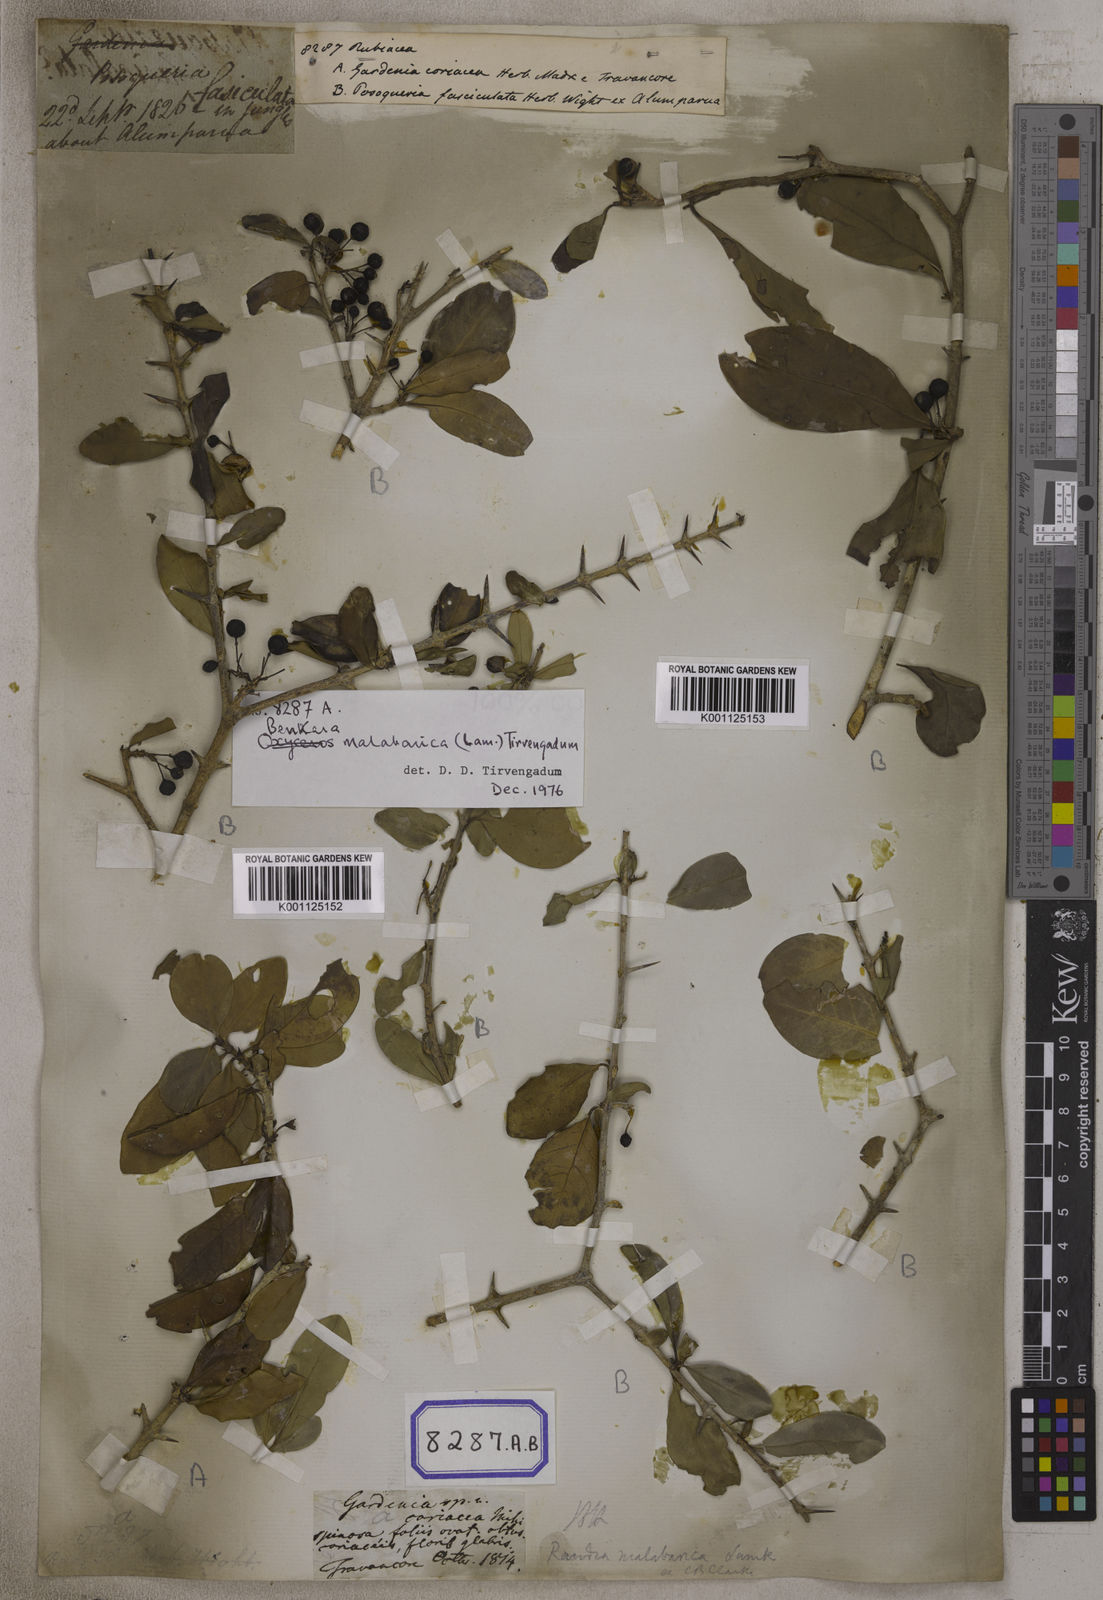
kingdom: Plantae
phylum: Tracheophyta
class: Magnoliopsida
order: Gentianales
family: Rubiaceae
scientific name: Rubiaceae
